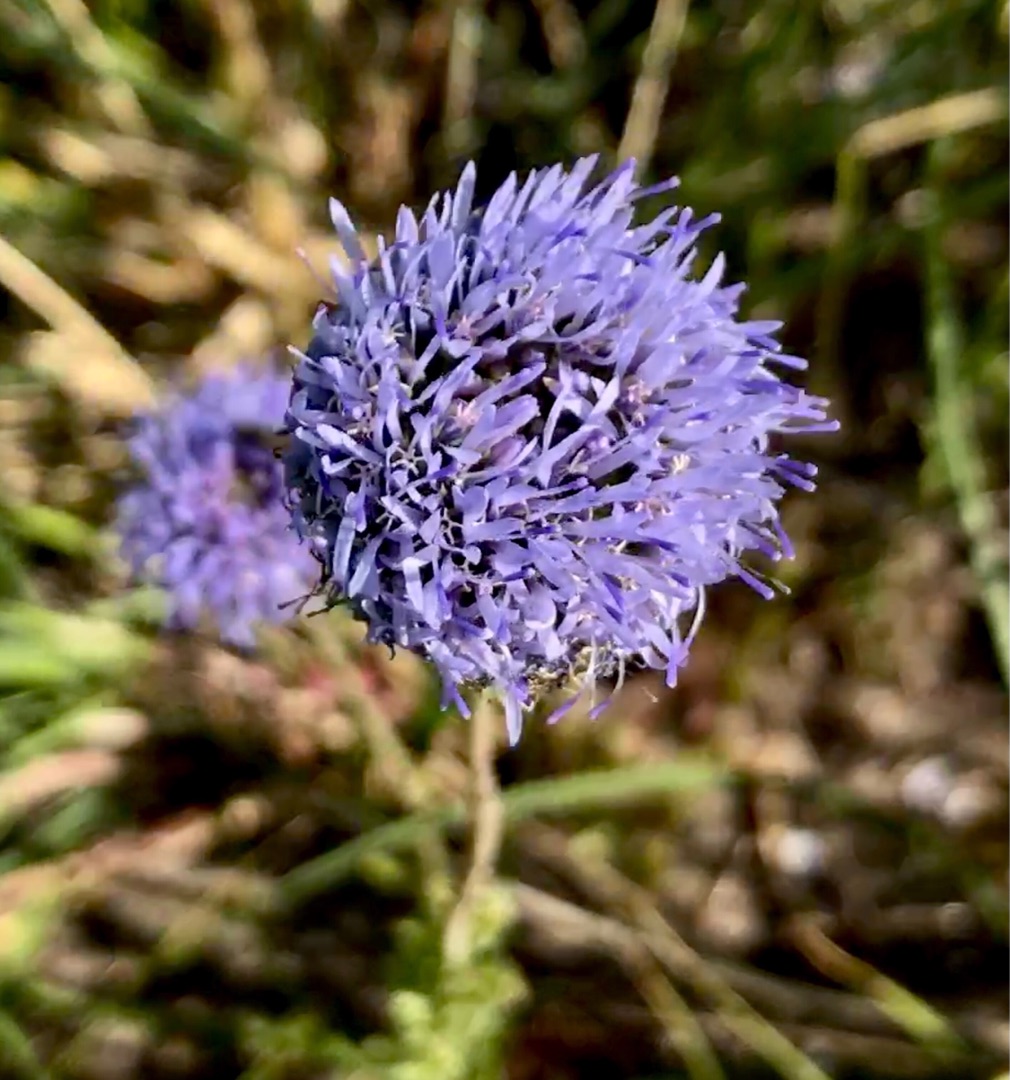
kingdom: Plantae
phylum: Tracheophyta
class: Magnoliopsida
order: Asterales
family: Campanulaceae
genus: Jasione
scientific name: Jasione montana
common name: Blåmunke
